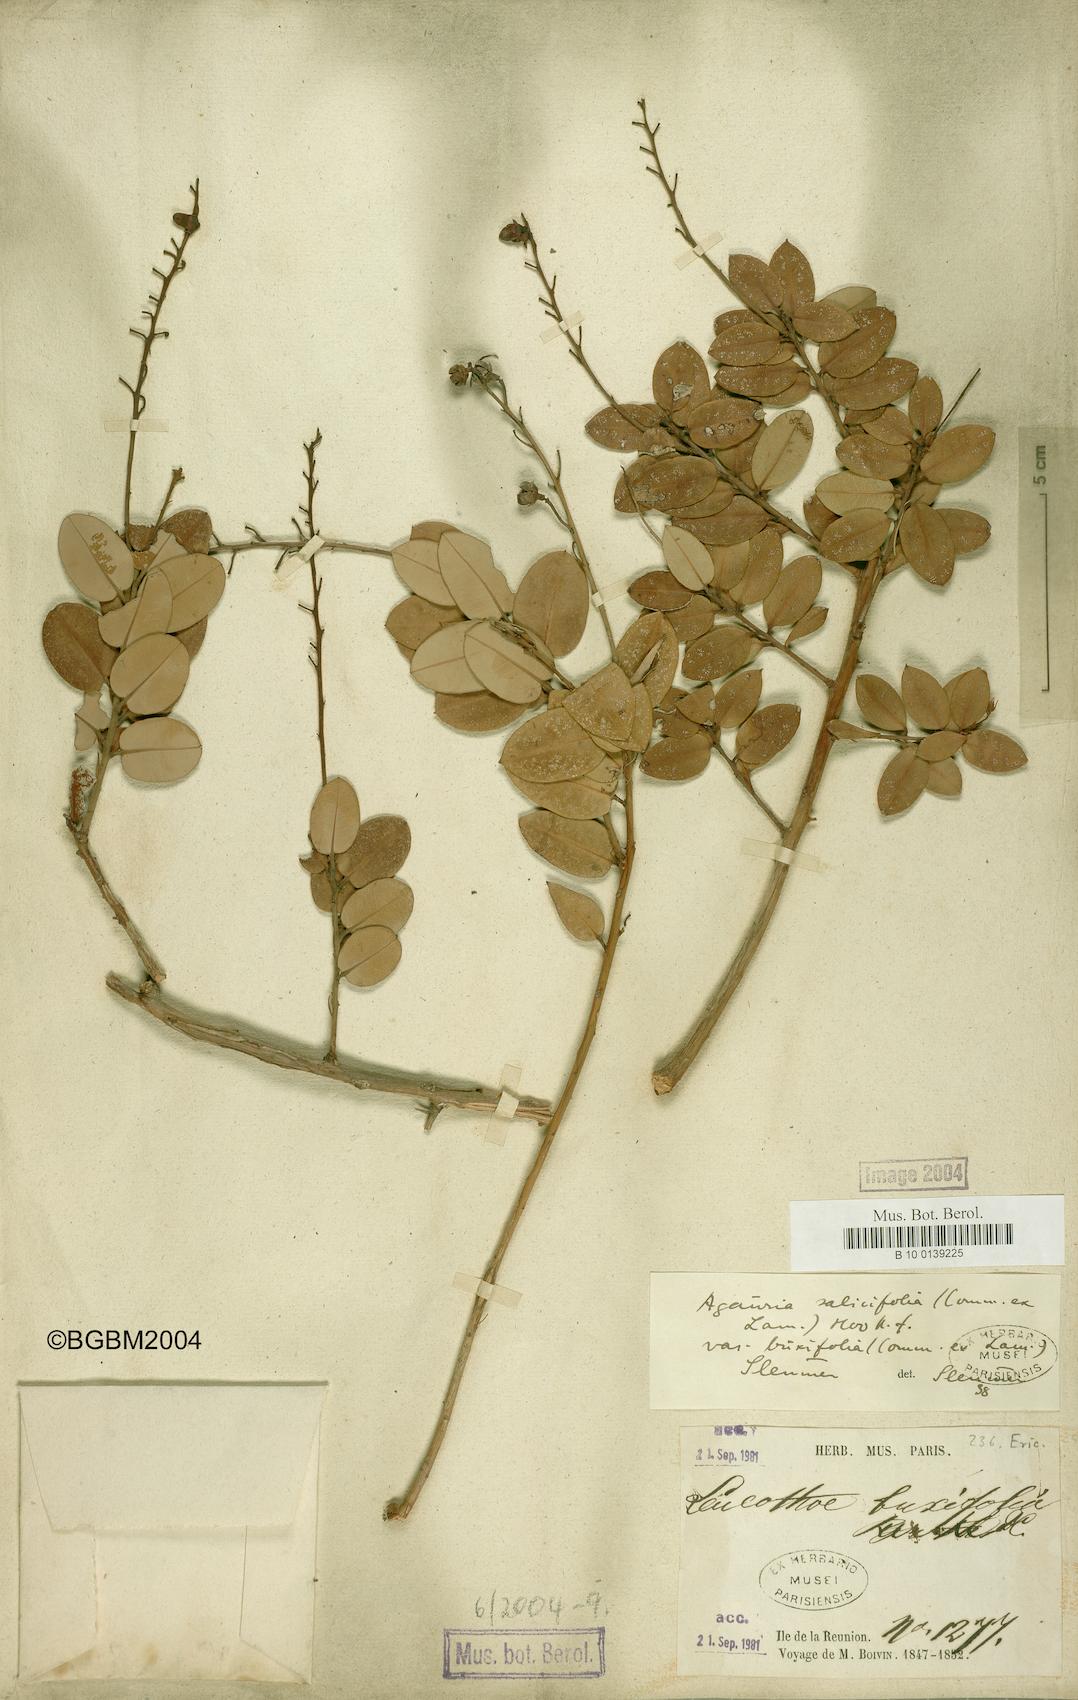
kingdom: Plantae
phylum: Tracheophyta
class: Magnoliopsida
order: Ericales
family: Ericaceae
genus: Agarista
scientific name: Agarista salicifolia
